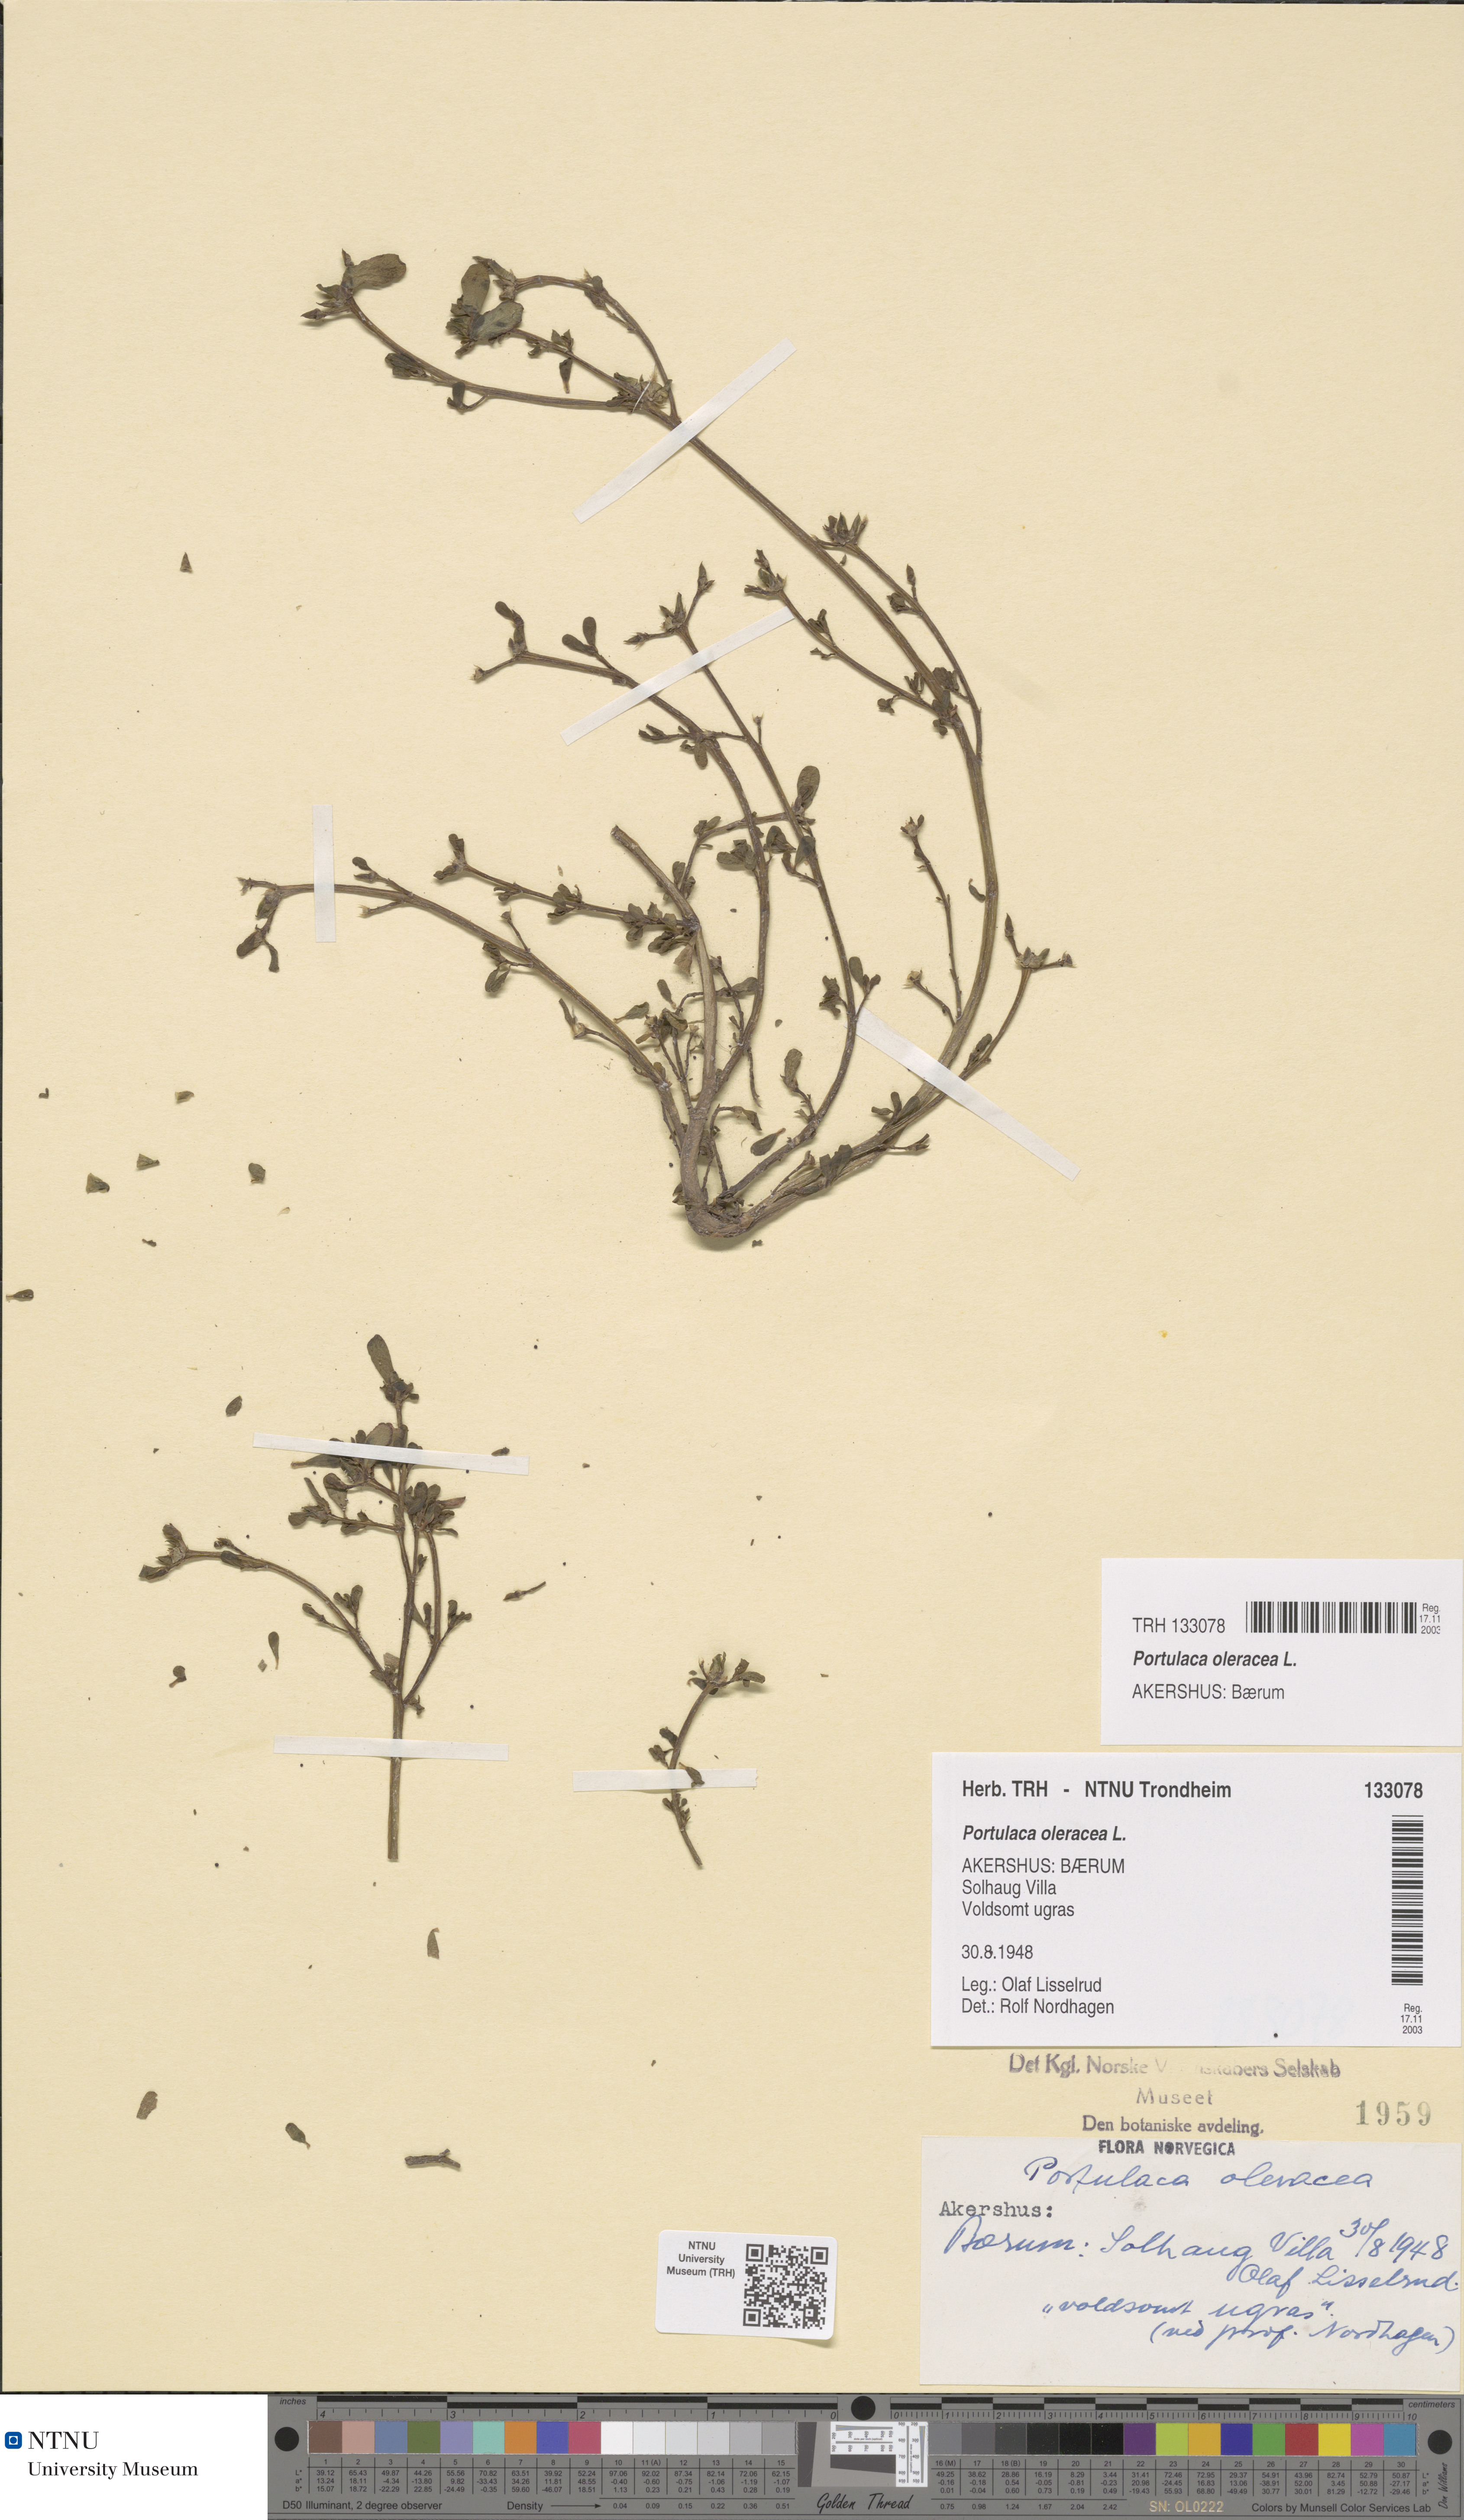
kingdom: Plantae
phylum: Tracheophyta
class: Magnoliopsida
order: Caryophyllales
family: Portulacaceae
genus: Portulaca
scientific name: Portulaca oleracea
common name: Common purslane
